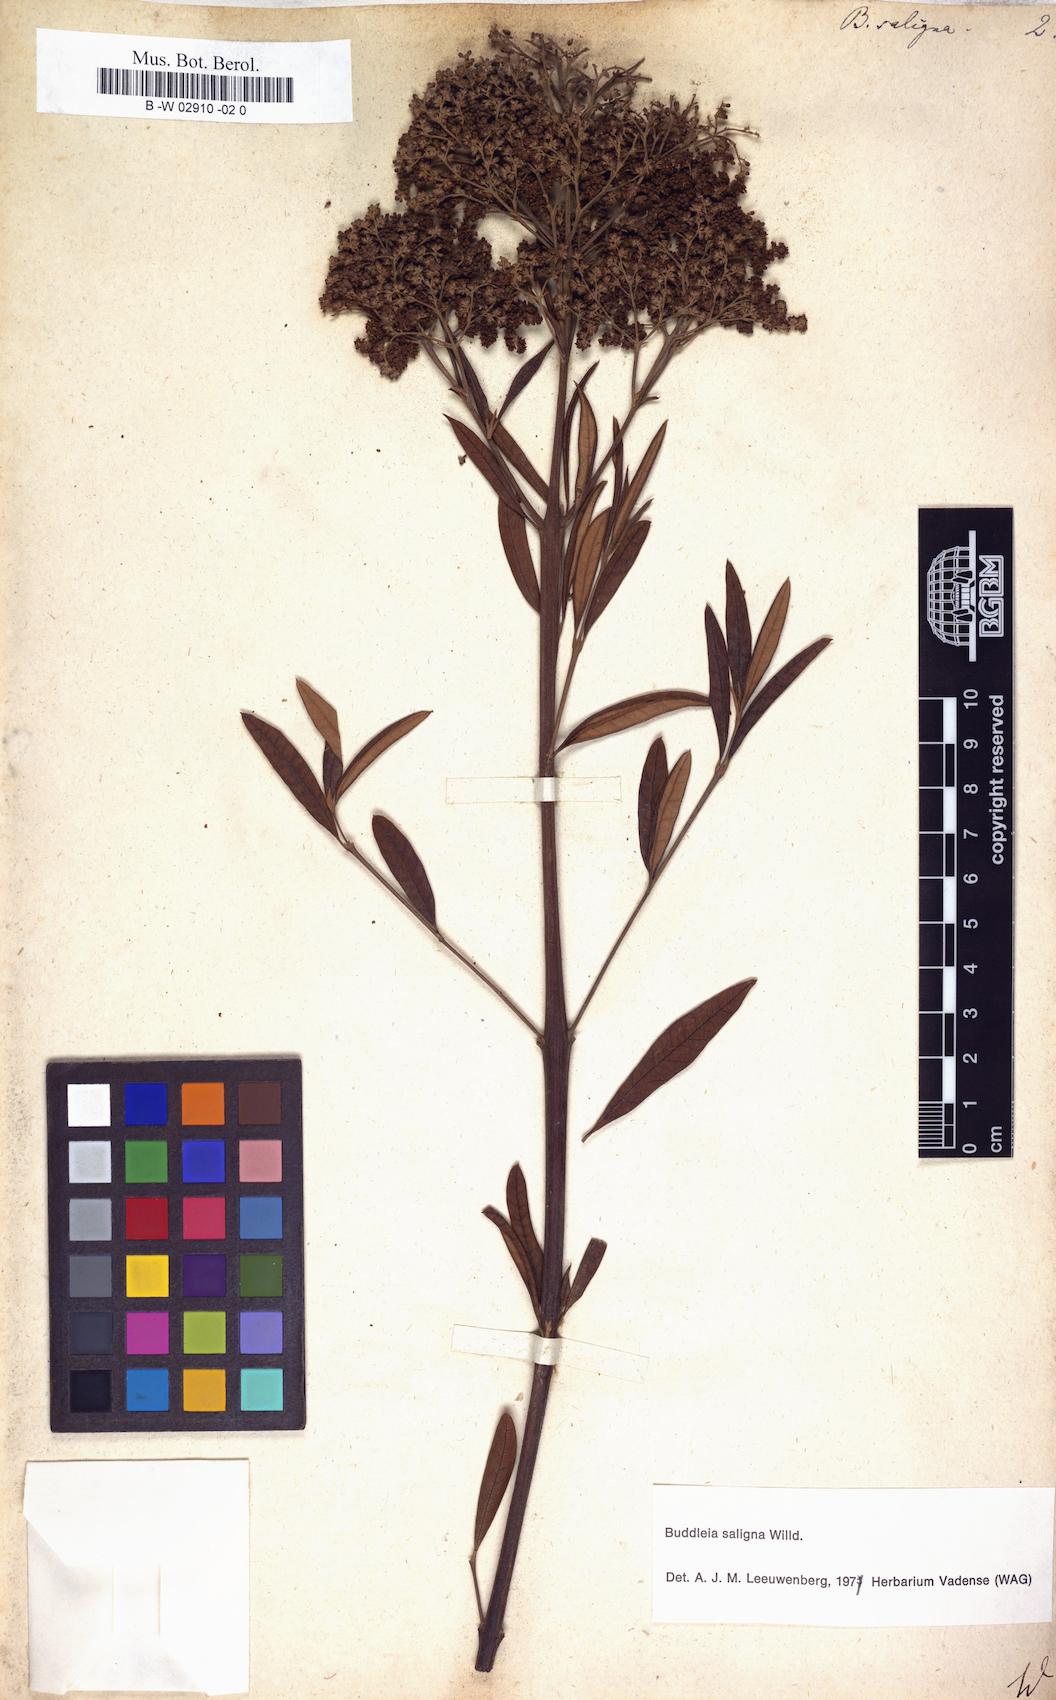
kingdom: Plantae
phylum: Tracheophyta
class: Magnoliopsida
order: Lamiales
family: Scrophulariaceae
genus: Buddleja
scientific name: Buddleja saligna
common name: False olive
